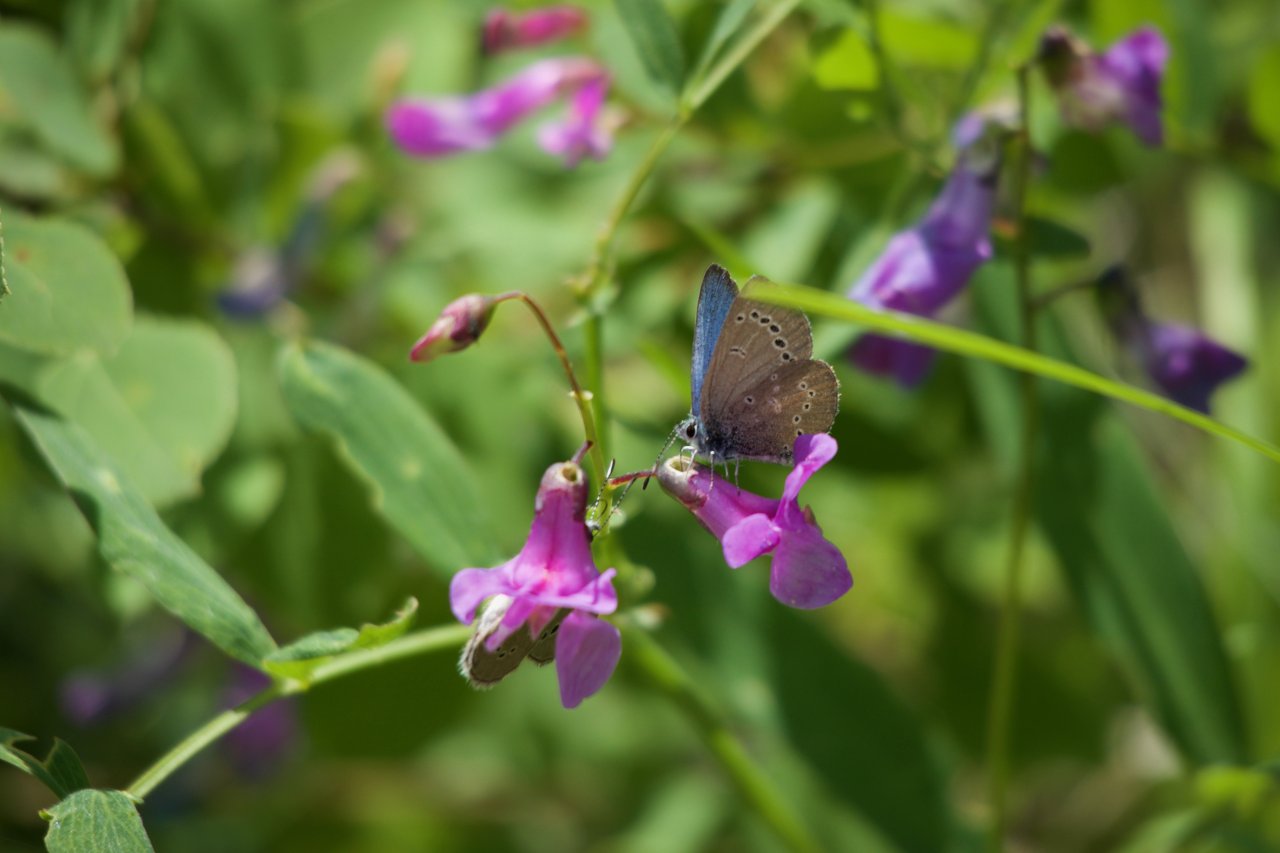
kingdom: Animalia
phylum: Arthropoda
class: Insecta
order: Lepidoptera
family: Lycaenidae
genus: Glaucopsyche
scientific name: Glaucopsyche lygdamus
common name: Silvery Blue
